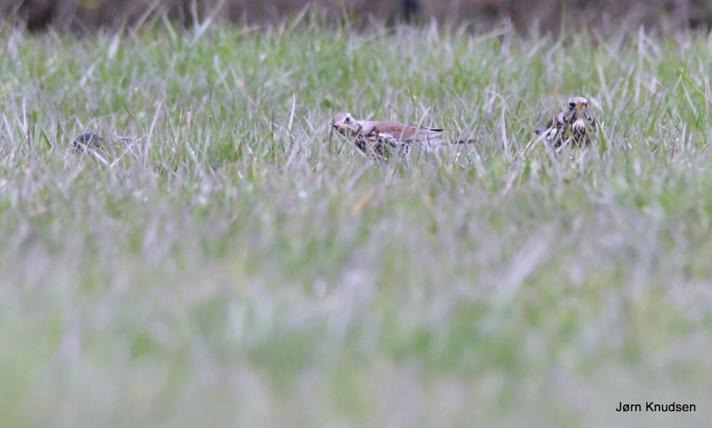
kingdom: Animalia
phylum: Chordata
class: Aves
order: Passeriformes
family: Turdidae
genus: Turdus
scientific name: Turdus pilaris
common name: Sjagger
